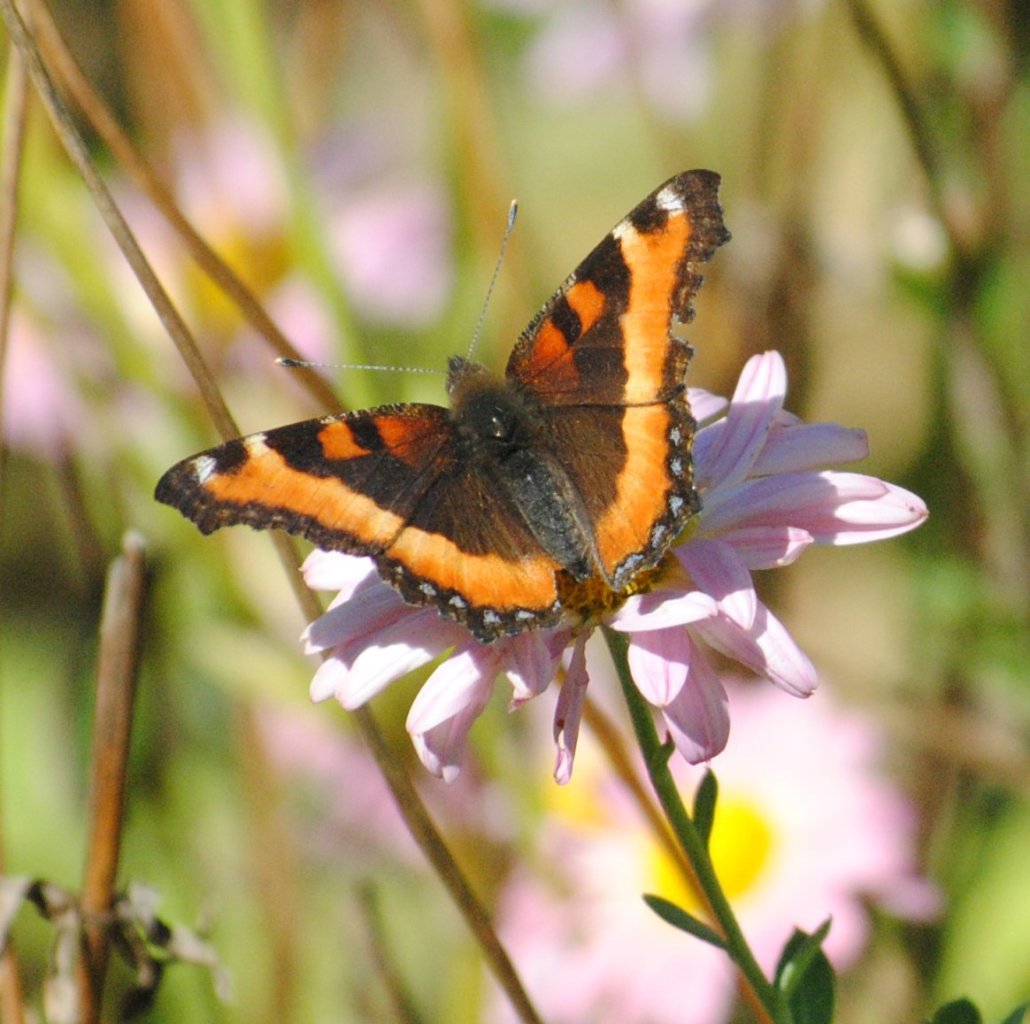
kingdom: Animalia
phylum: Arthropoda
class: Insecta
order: Lepidoptera
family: Nymphalidae
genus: Aglais
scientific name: Aglais milberti
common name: Milbert's Tortoiseshell
